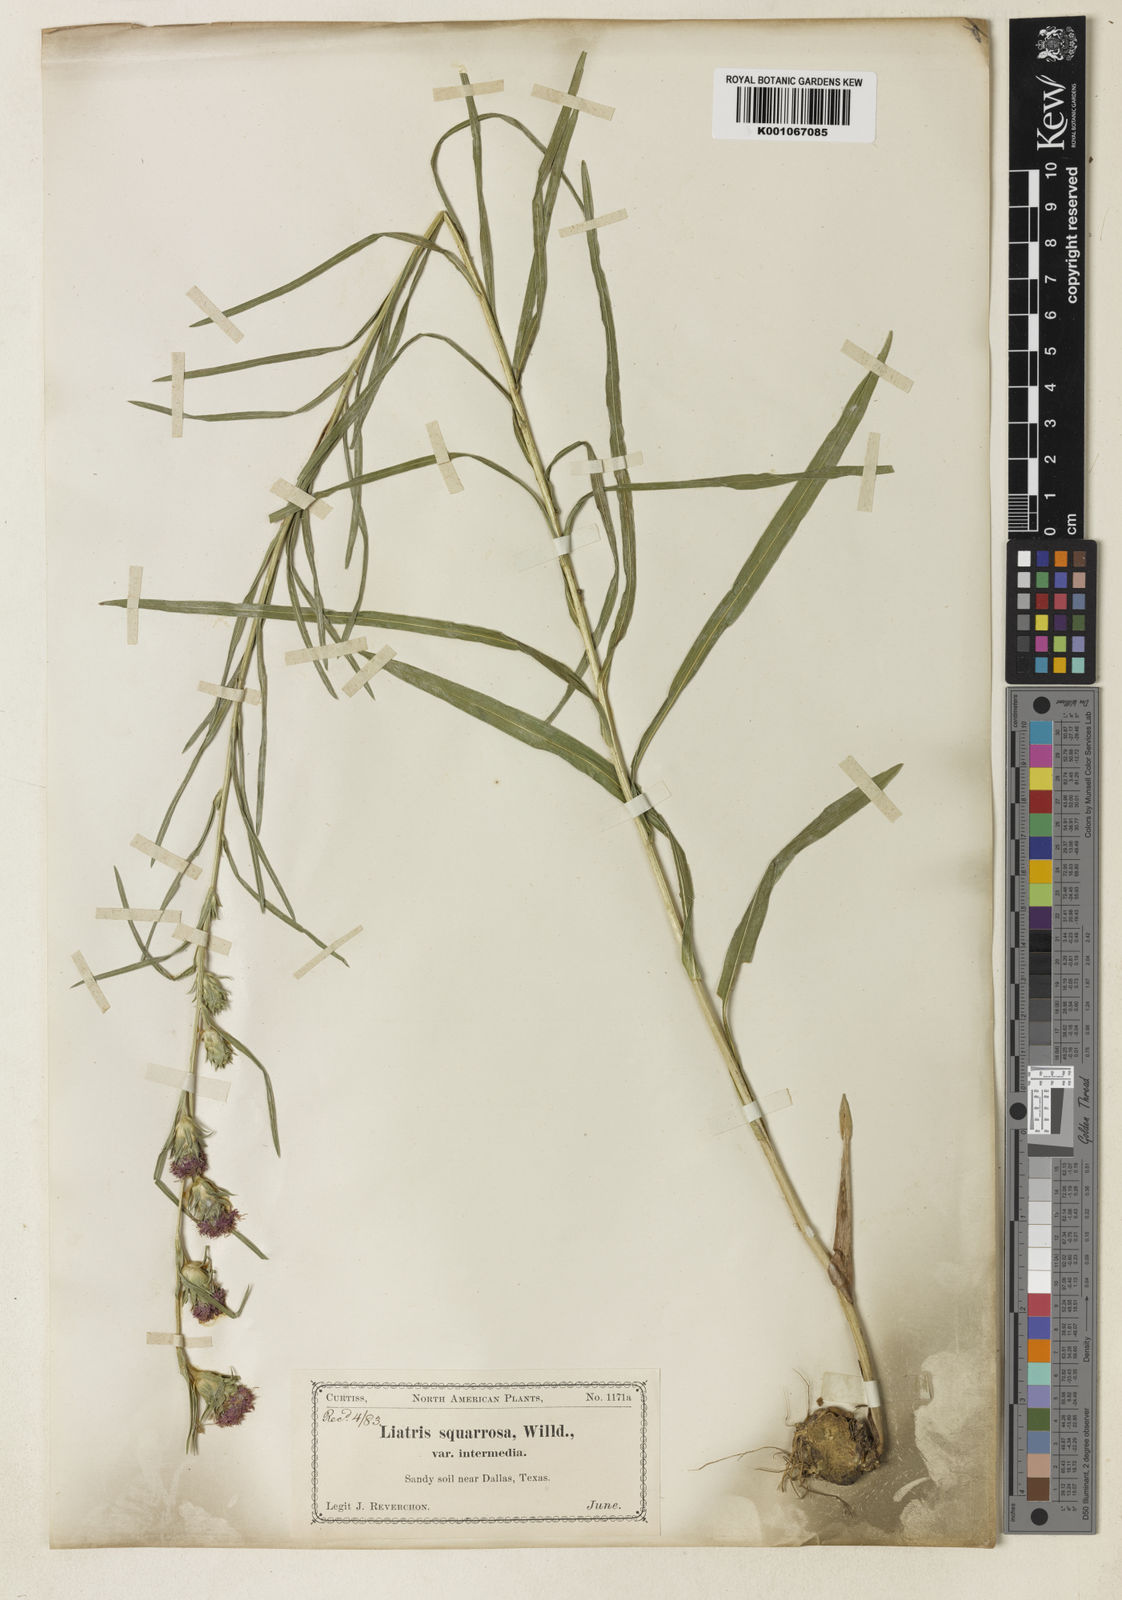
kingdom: Plantae
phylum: Tracheophyta
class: Magnoliopsida
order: Asterales
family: Asteraceae
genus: Liatris
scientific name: Liatris squarrosa
